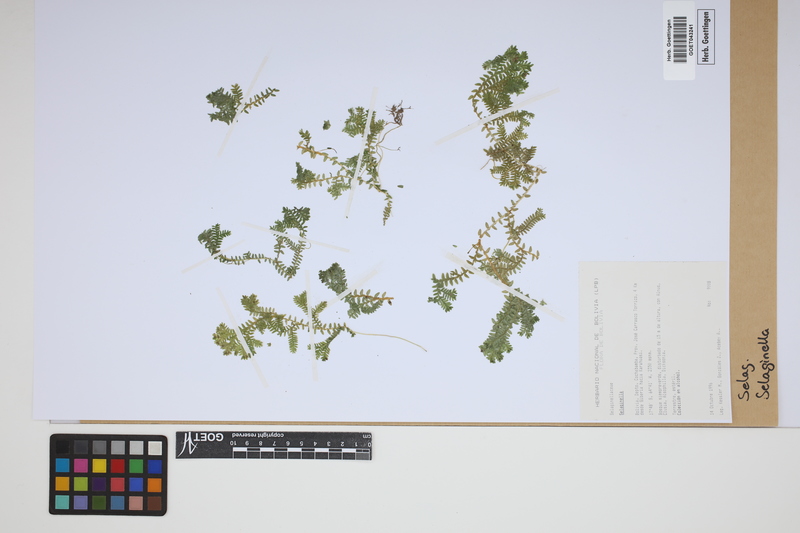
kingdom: Plantae
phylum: Tracheophyta
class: Lycopodiopsida
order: Selaginellales
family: Selaginellaceae
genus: Selaginella
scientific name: Selaginella
